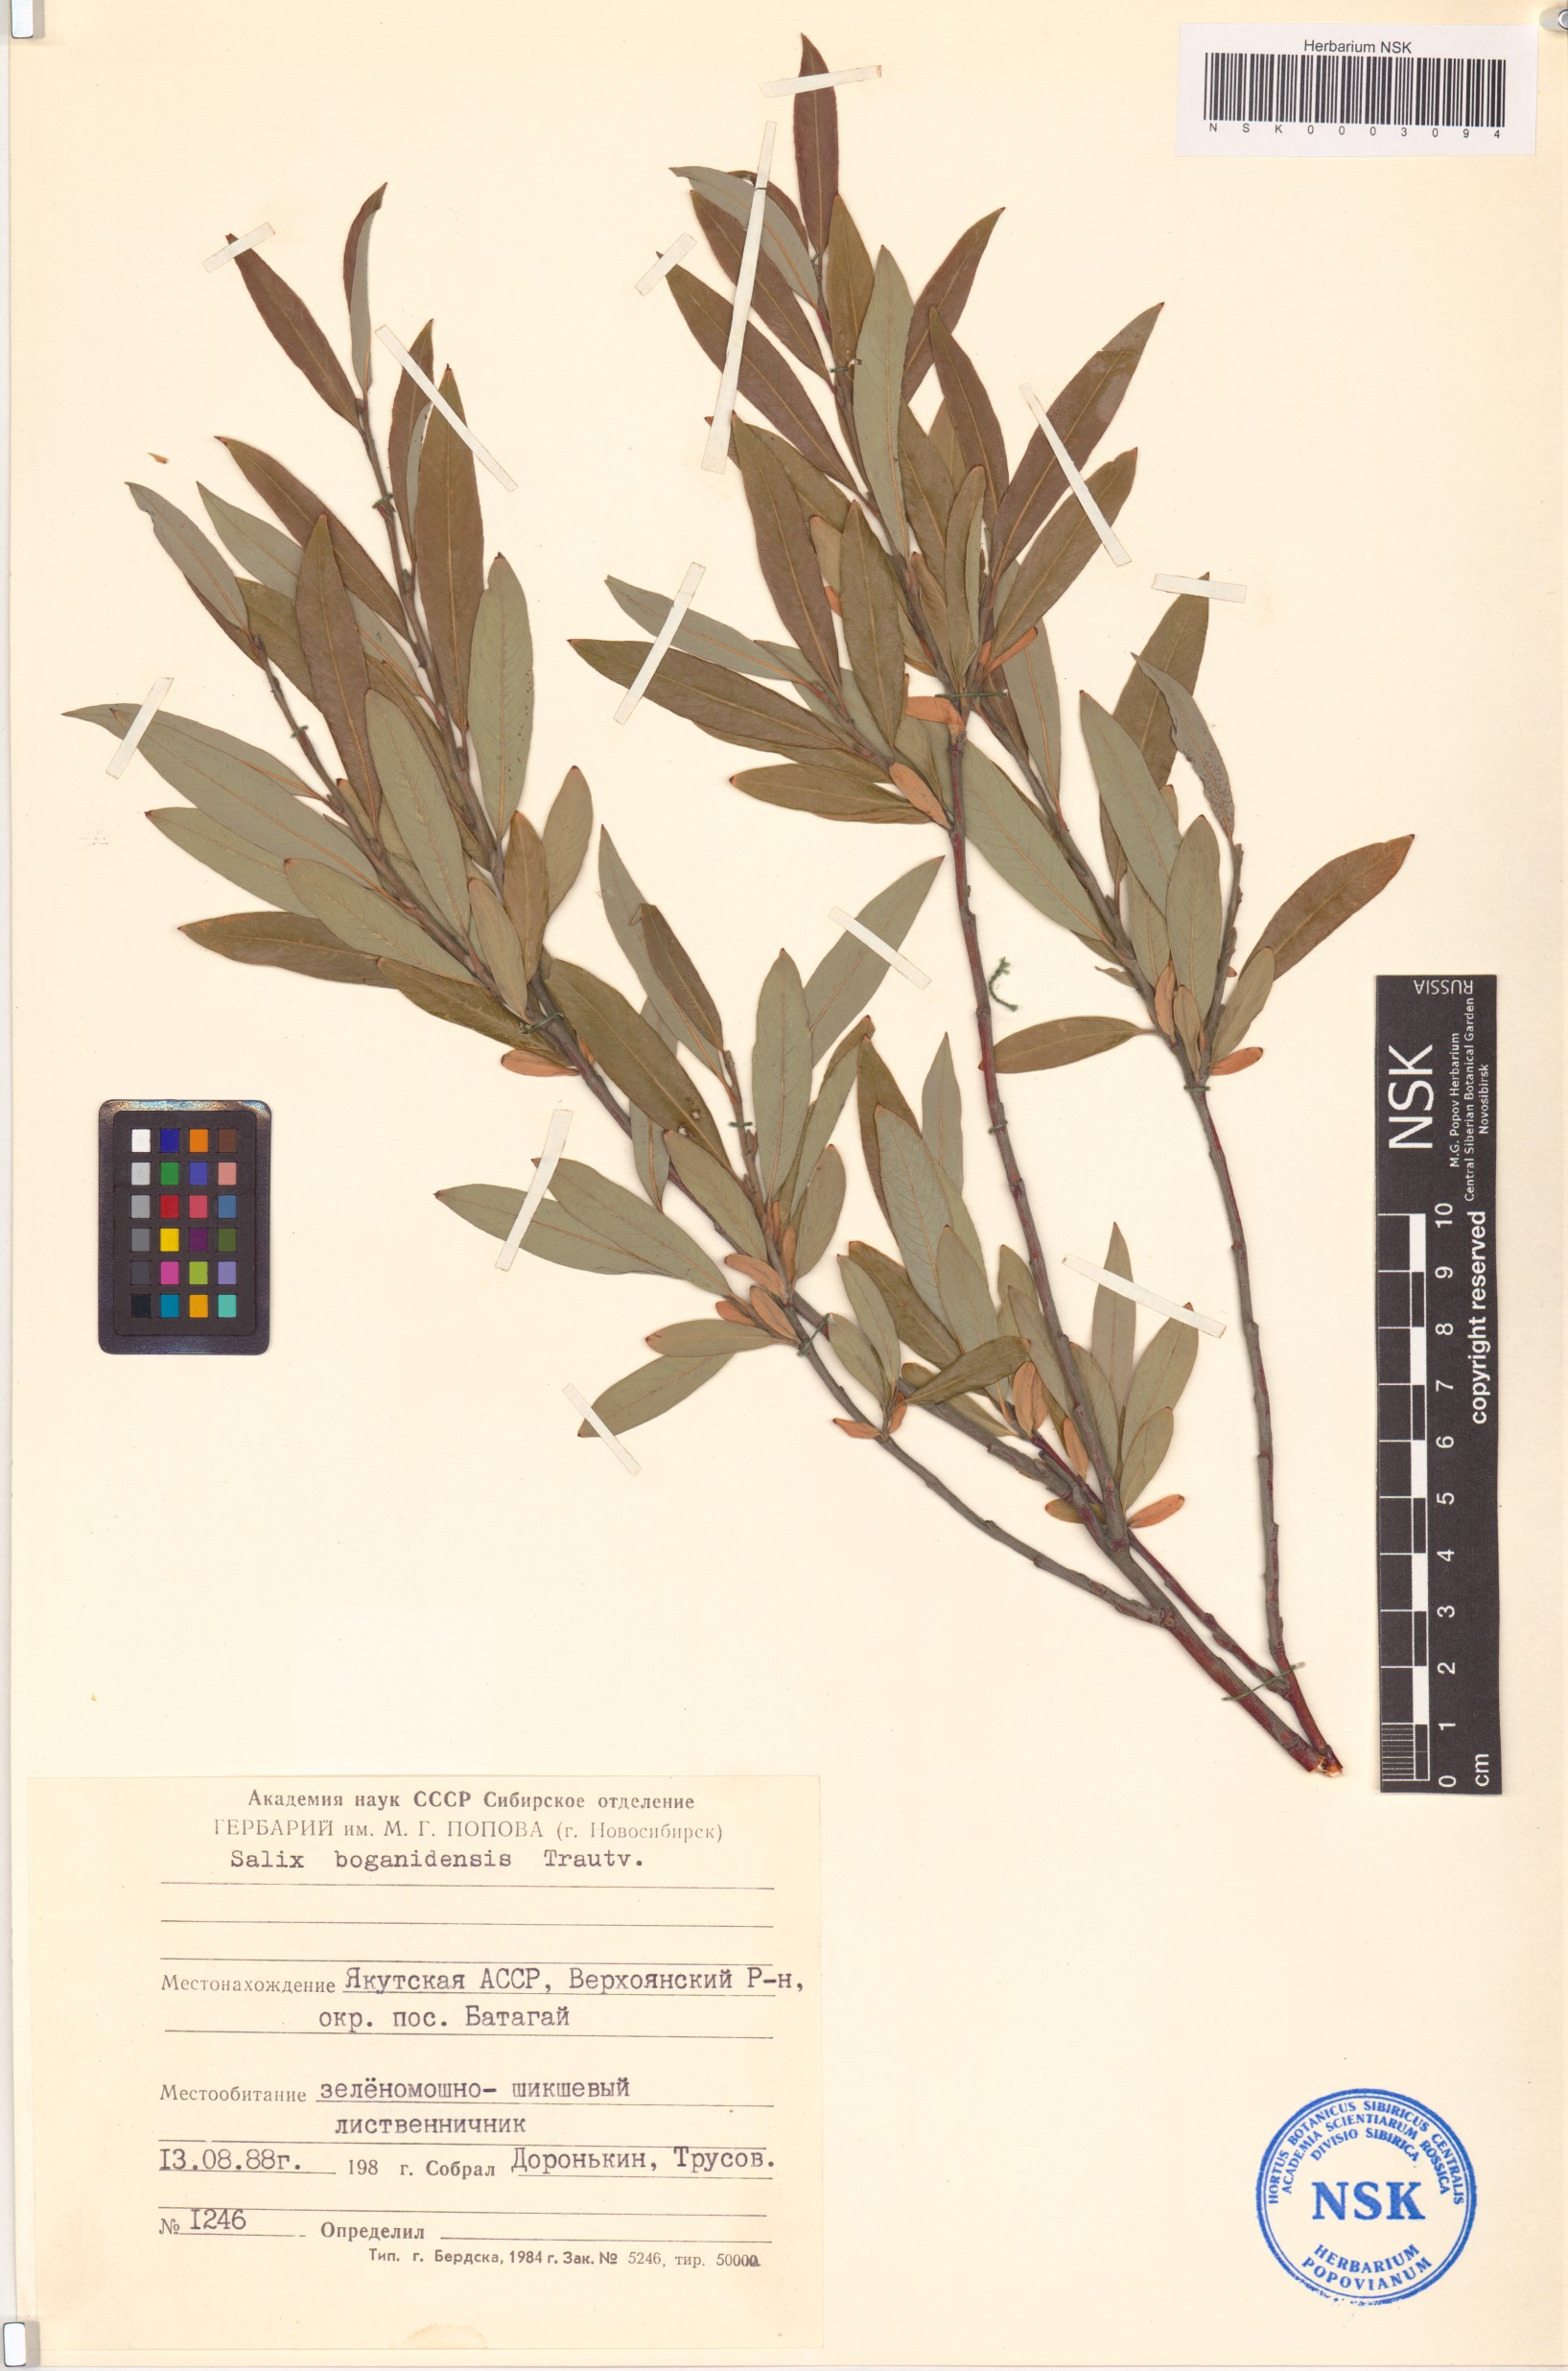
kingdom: Plantae
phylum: Tracheophyta
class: Magnoliopsida
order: Malpighiales
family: Salicaceae
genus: Salix
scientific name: Salix boganidensis
